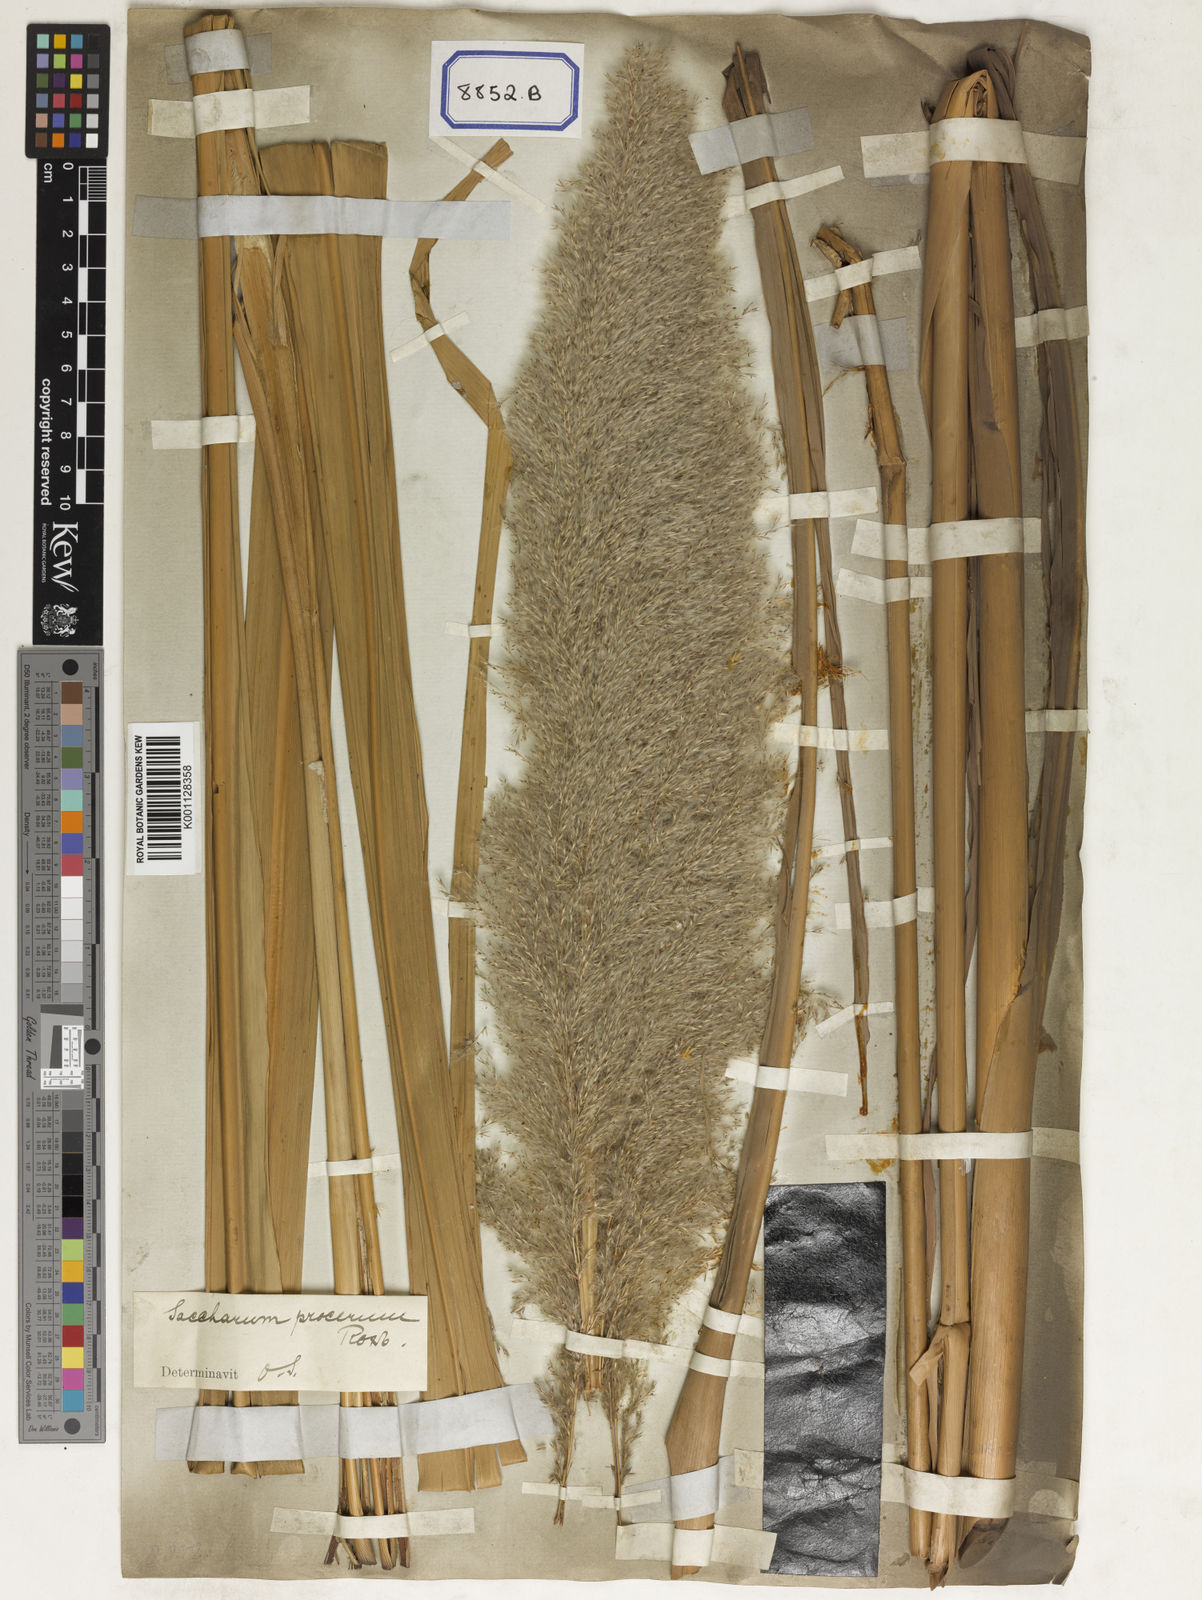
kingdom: Plantae
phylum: Tracheophyta
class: Liliopsida
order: Poales
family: Poaceae
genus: Saccharum
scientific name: Saccharum
